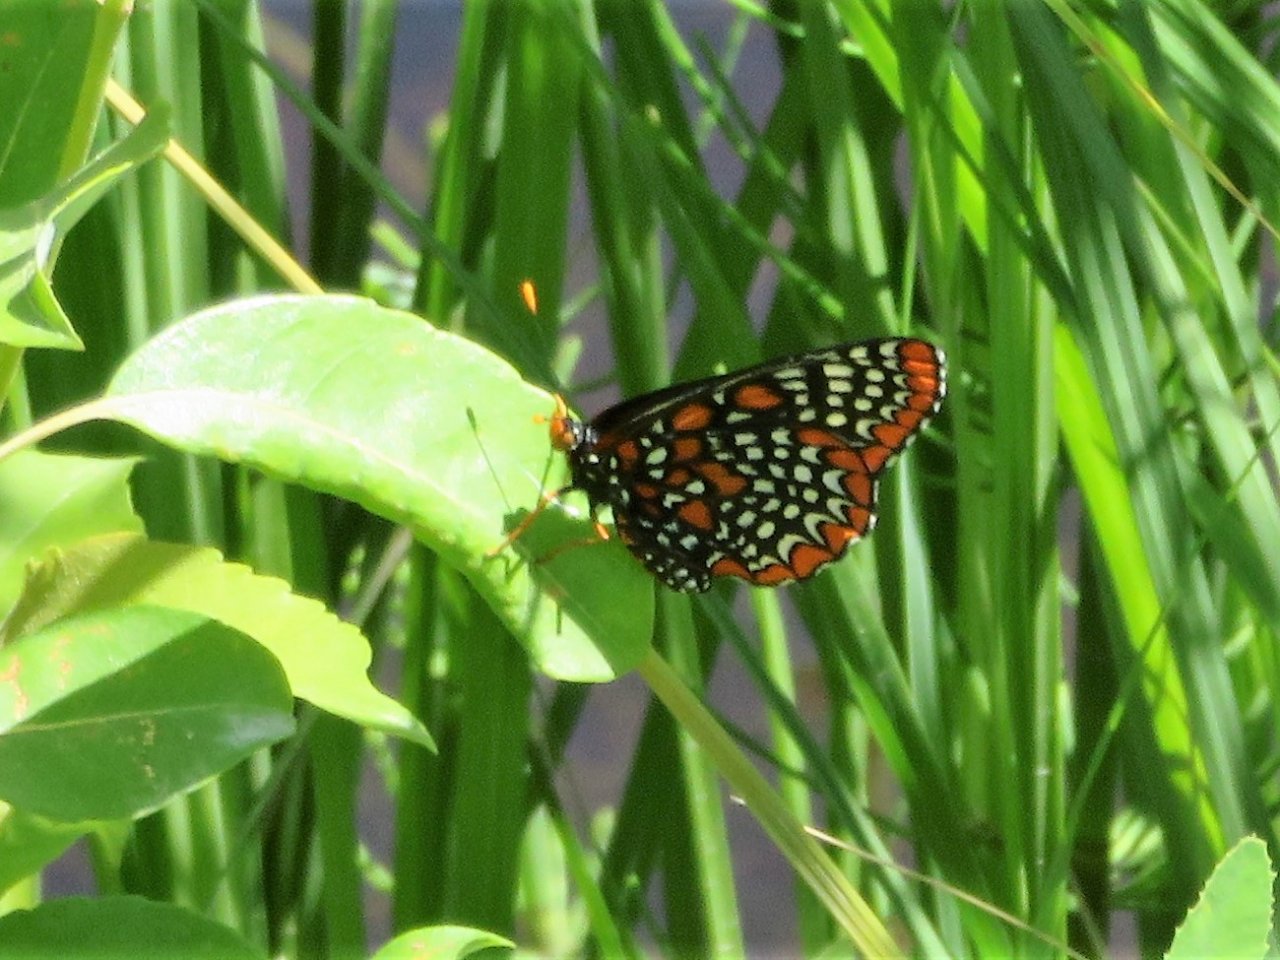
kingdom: Animalia
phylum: Arthropoda
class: Insecta
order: Lepidoptera
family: Nymphalidae
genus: Euphydryas
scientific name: Euphydryas phaeton
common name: Baltimore Checkerspot
